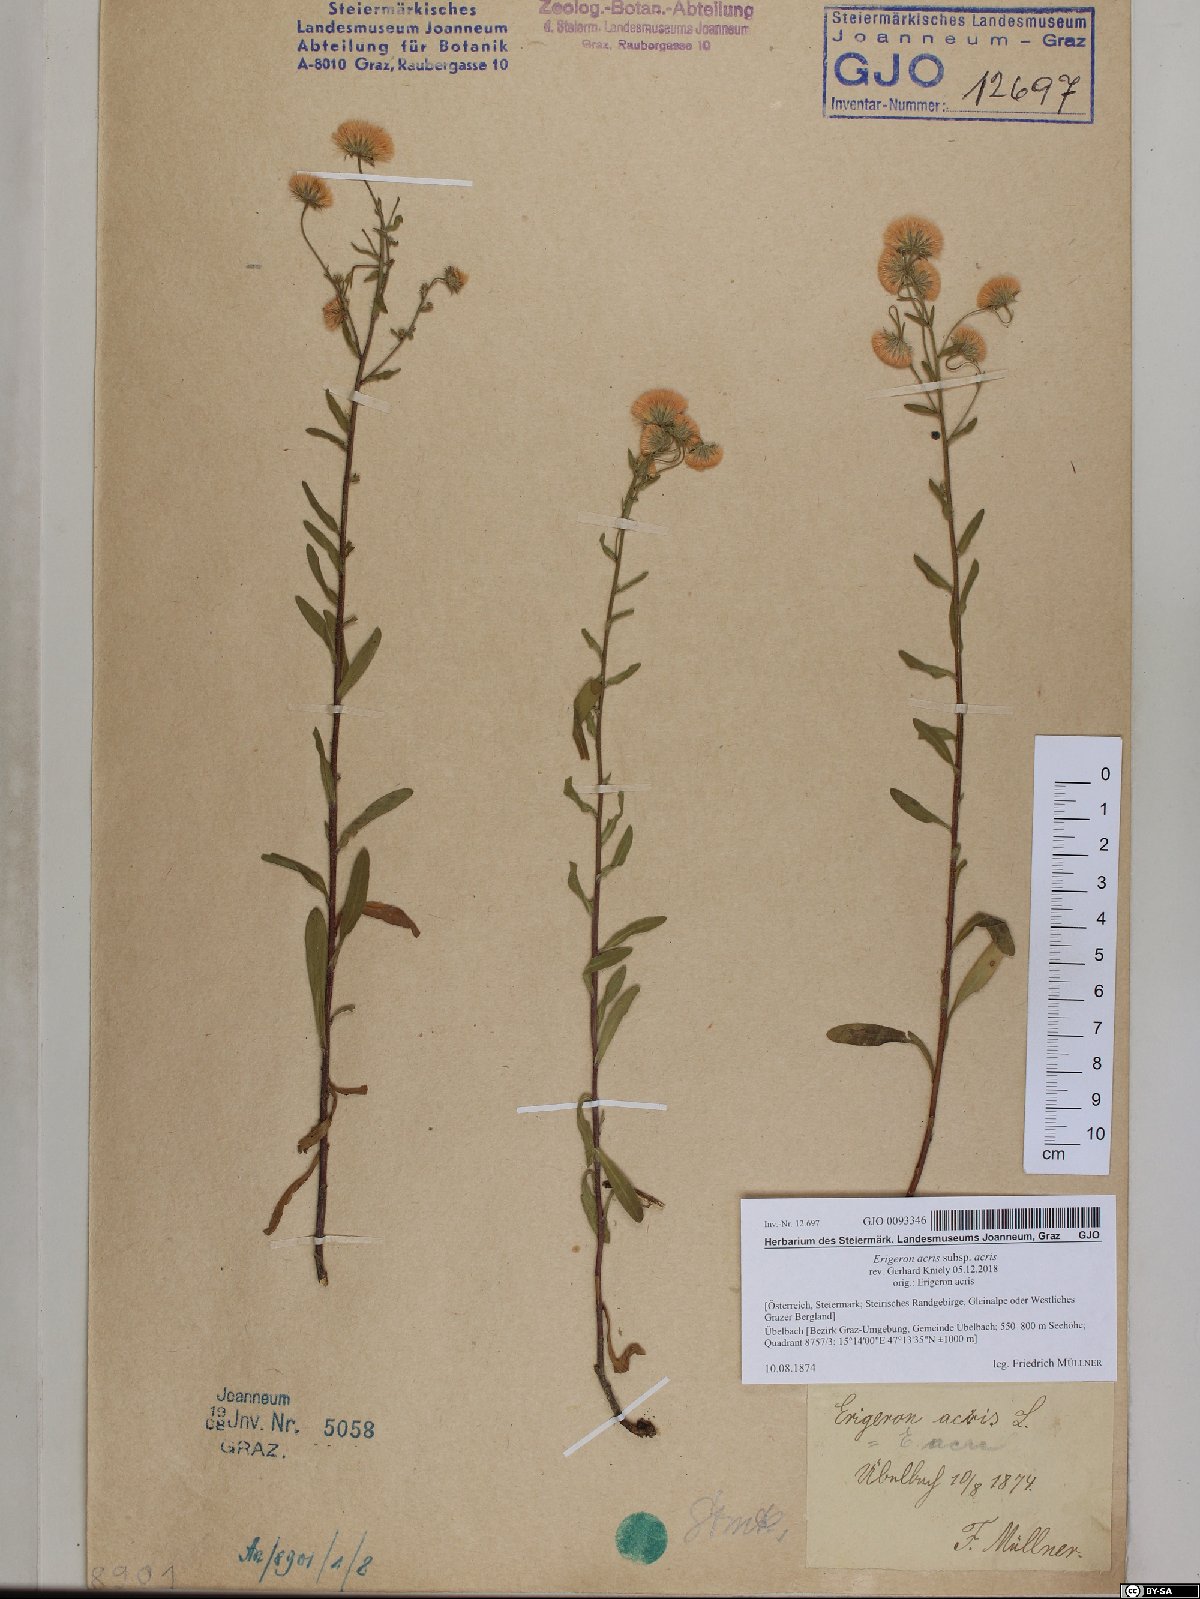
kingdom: Plantae
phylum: Tracheophyta
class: Magnoliopsida
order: Asterales
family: Asteraceae
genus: Erigeron
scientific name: Erigeron acris
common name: Blue fleabane
